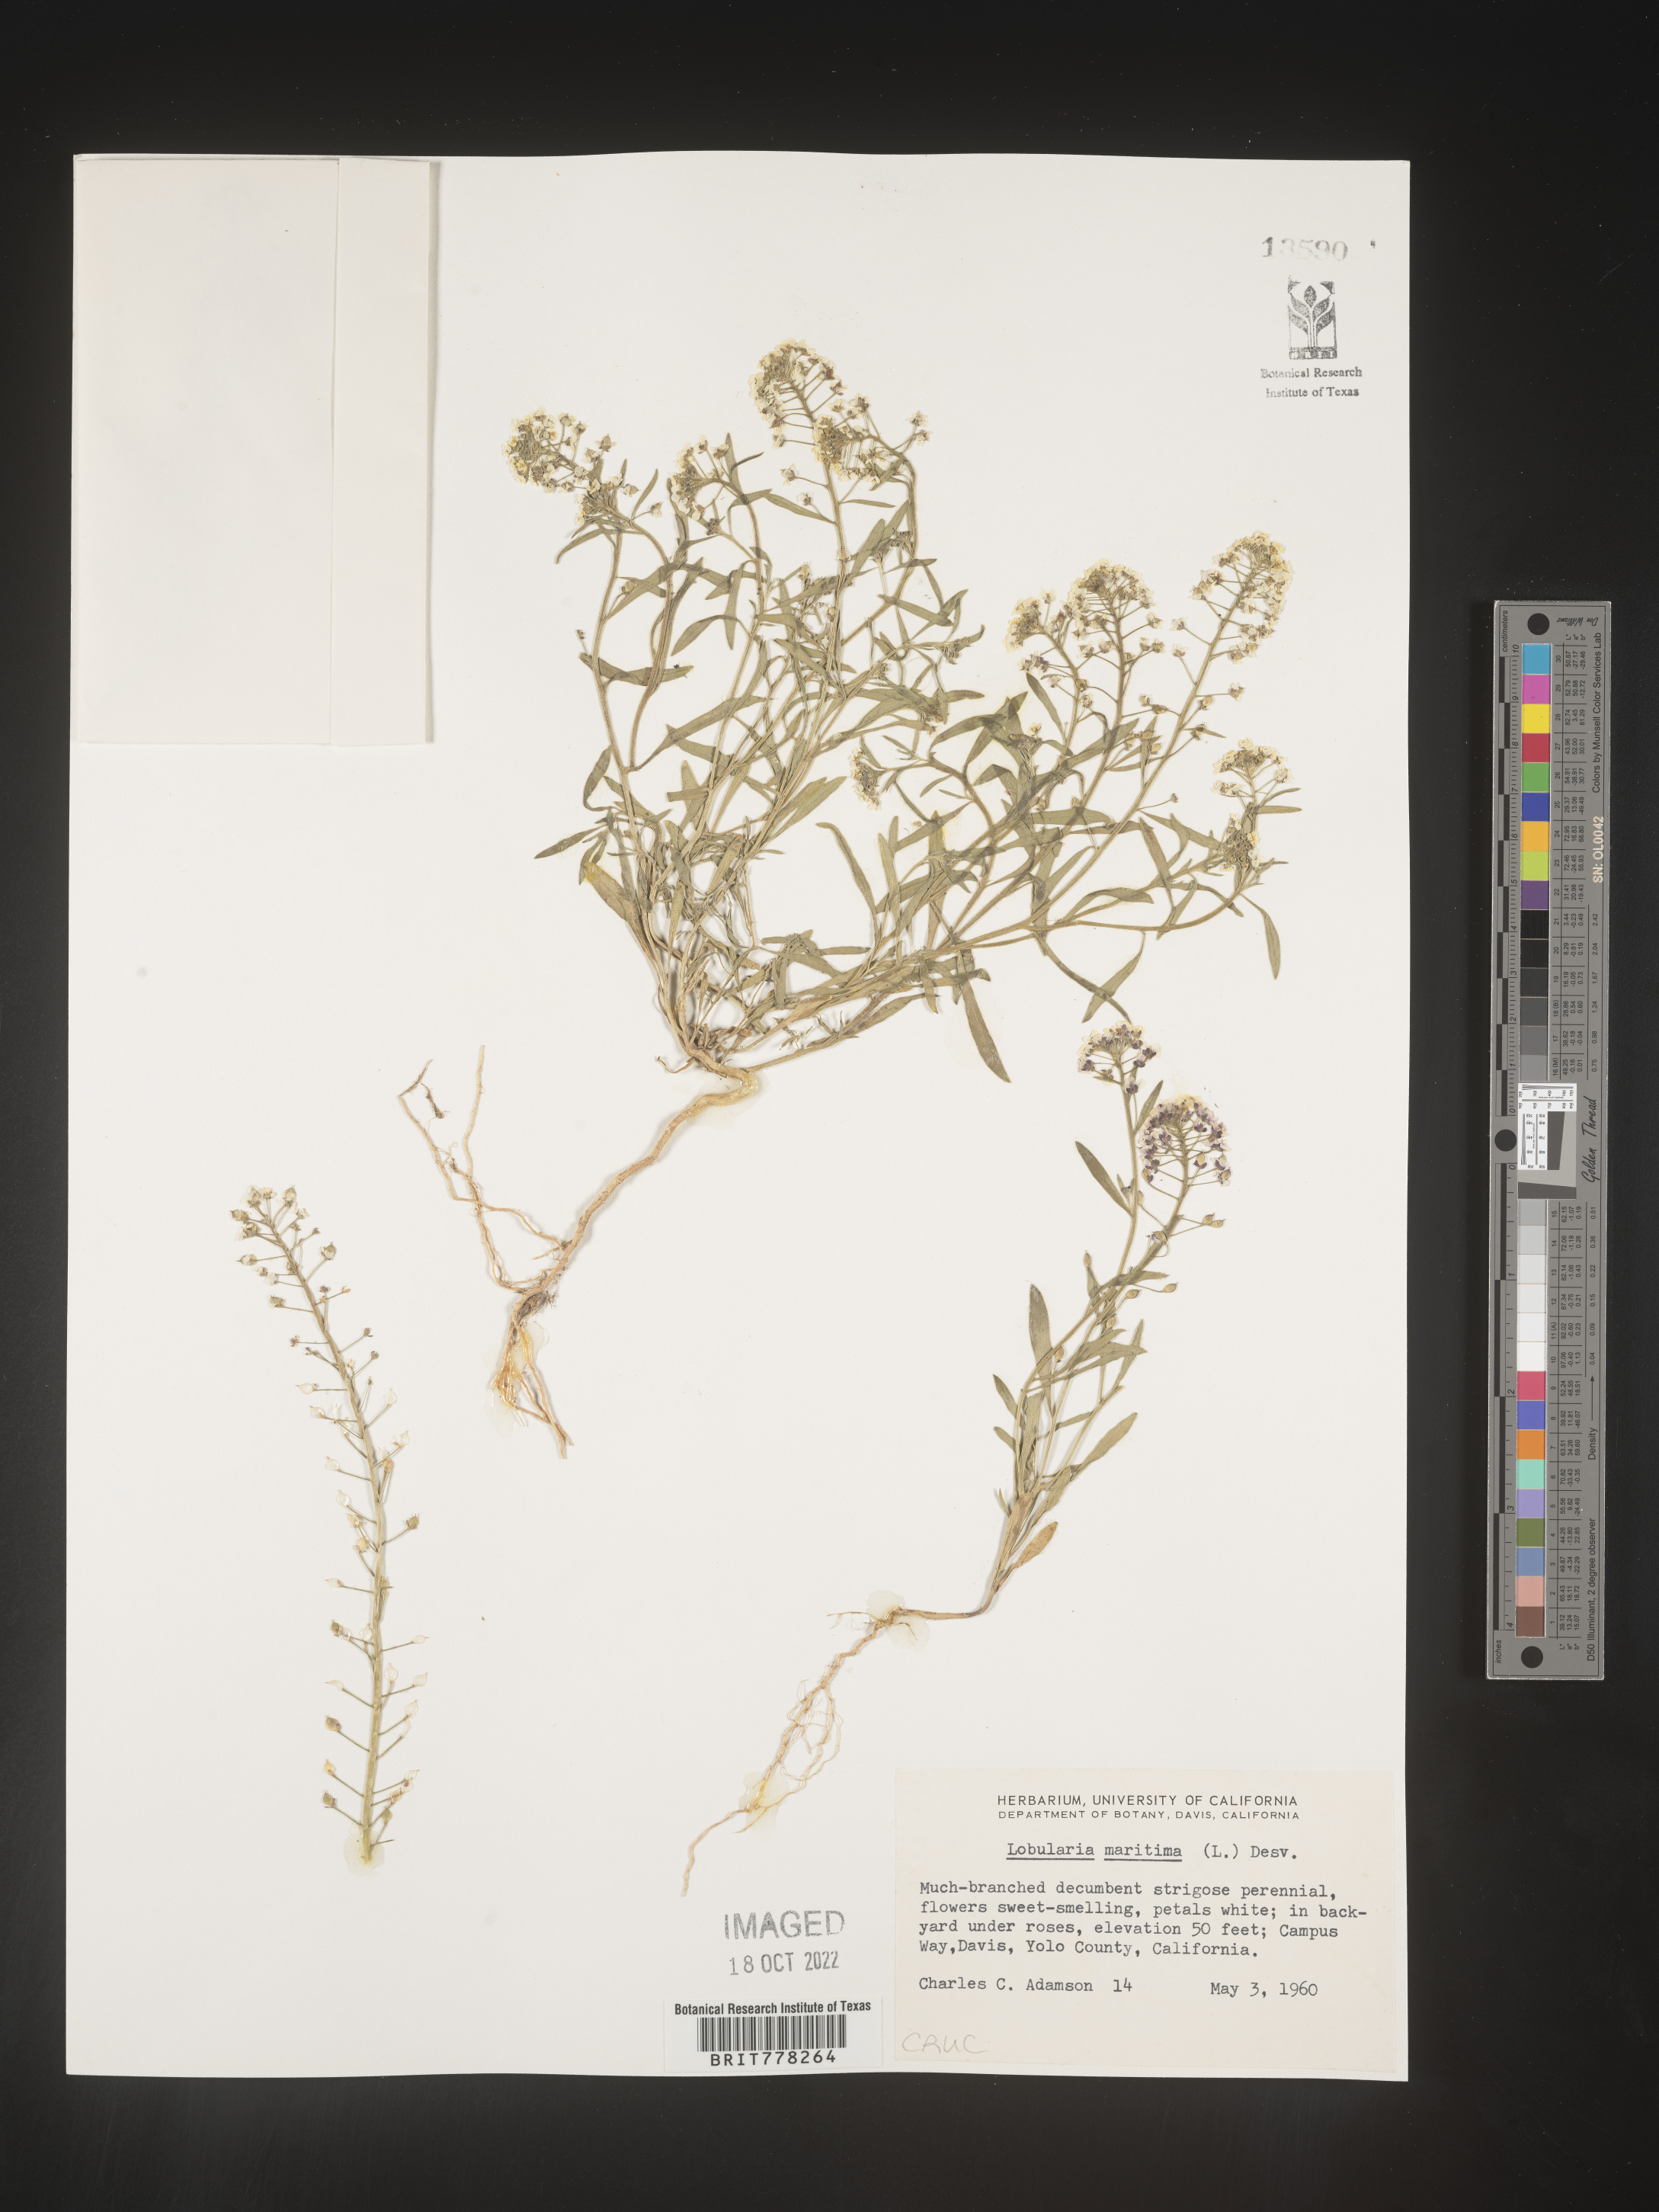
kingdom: Plantae
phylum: Tracheophyta
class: Magnoliopsida
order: Brassicales
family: Brassicaceae
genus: Lobularia
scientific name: Lobularia
